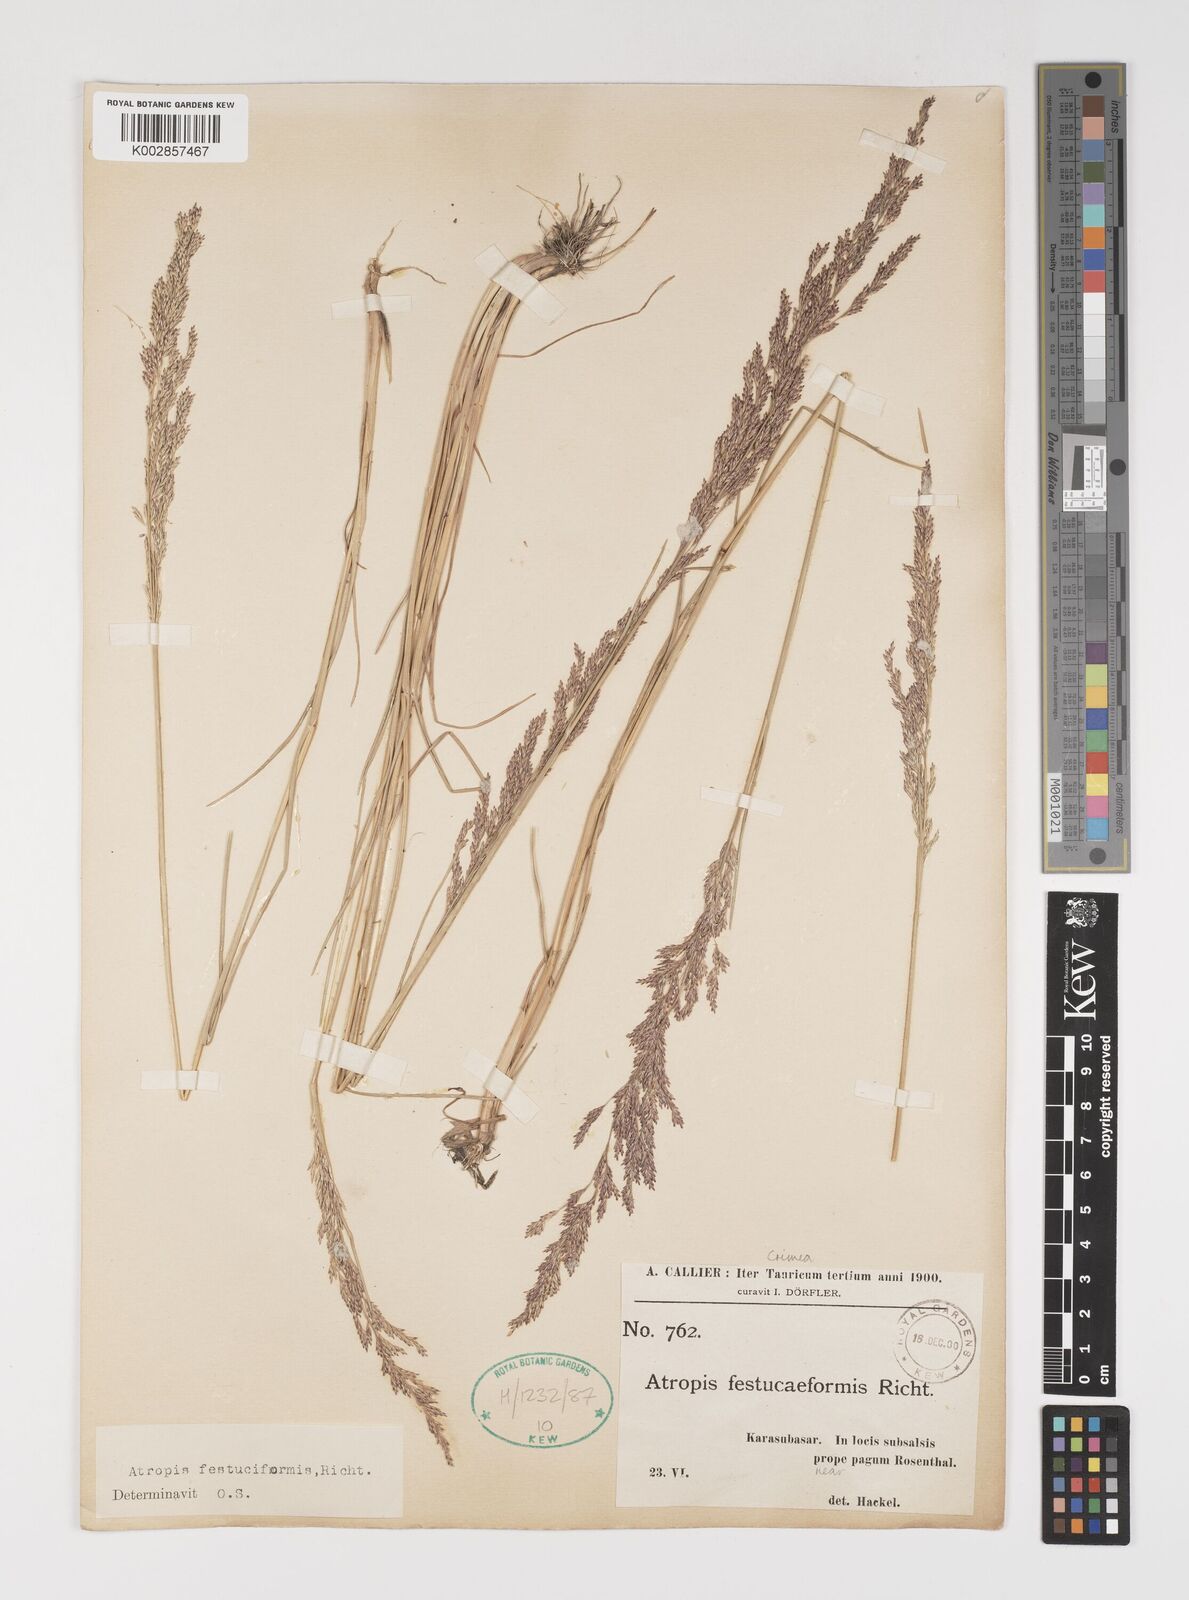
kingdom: Plantae
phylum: Tracheophyta
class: Liliopsida
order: Poales
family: Poaceae
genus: Puccinellia
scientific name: Puccinellia
